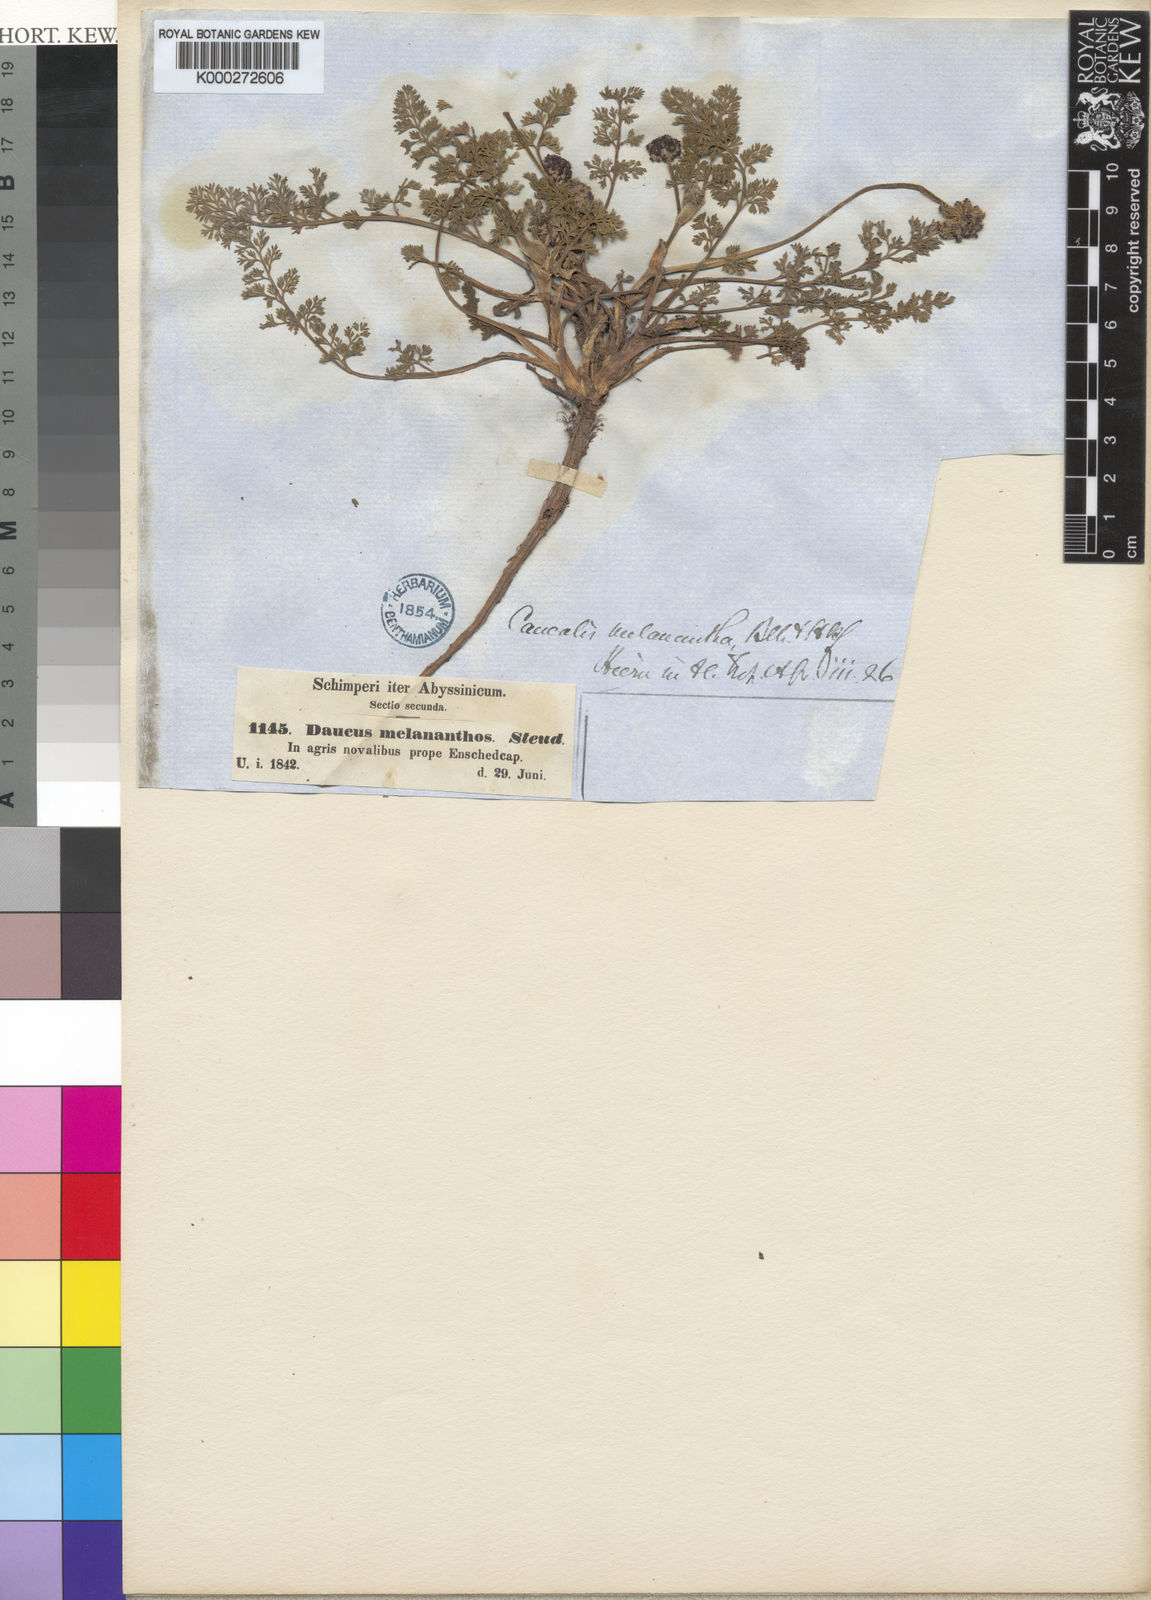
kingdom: Plantae
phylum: Tracheophyta
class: Magnoliopsida
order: Apiales
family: Apiaceae
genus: Daucus
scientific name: Daucus melananthus
